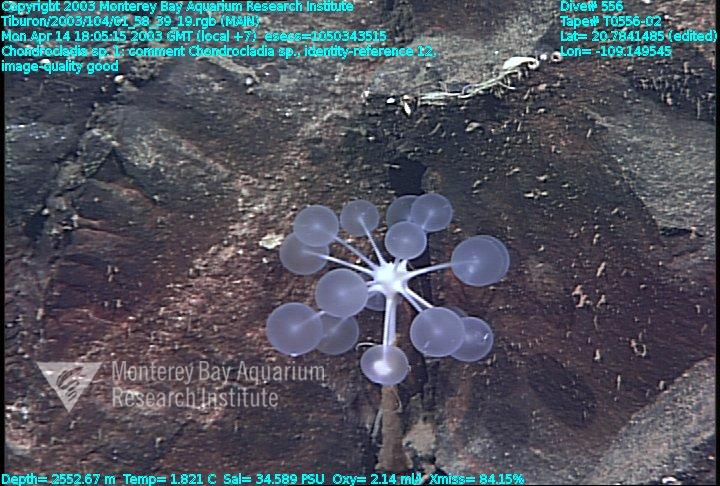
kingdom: Animalia
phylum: Porifera
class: Demospongiae
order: Poecilosclerida
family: Cladorhizidae
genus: Chondrocladia
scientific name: Chondrocladia
